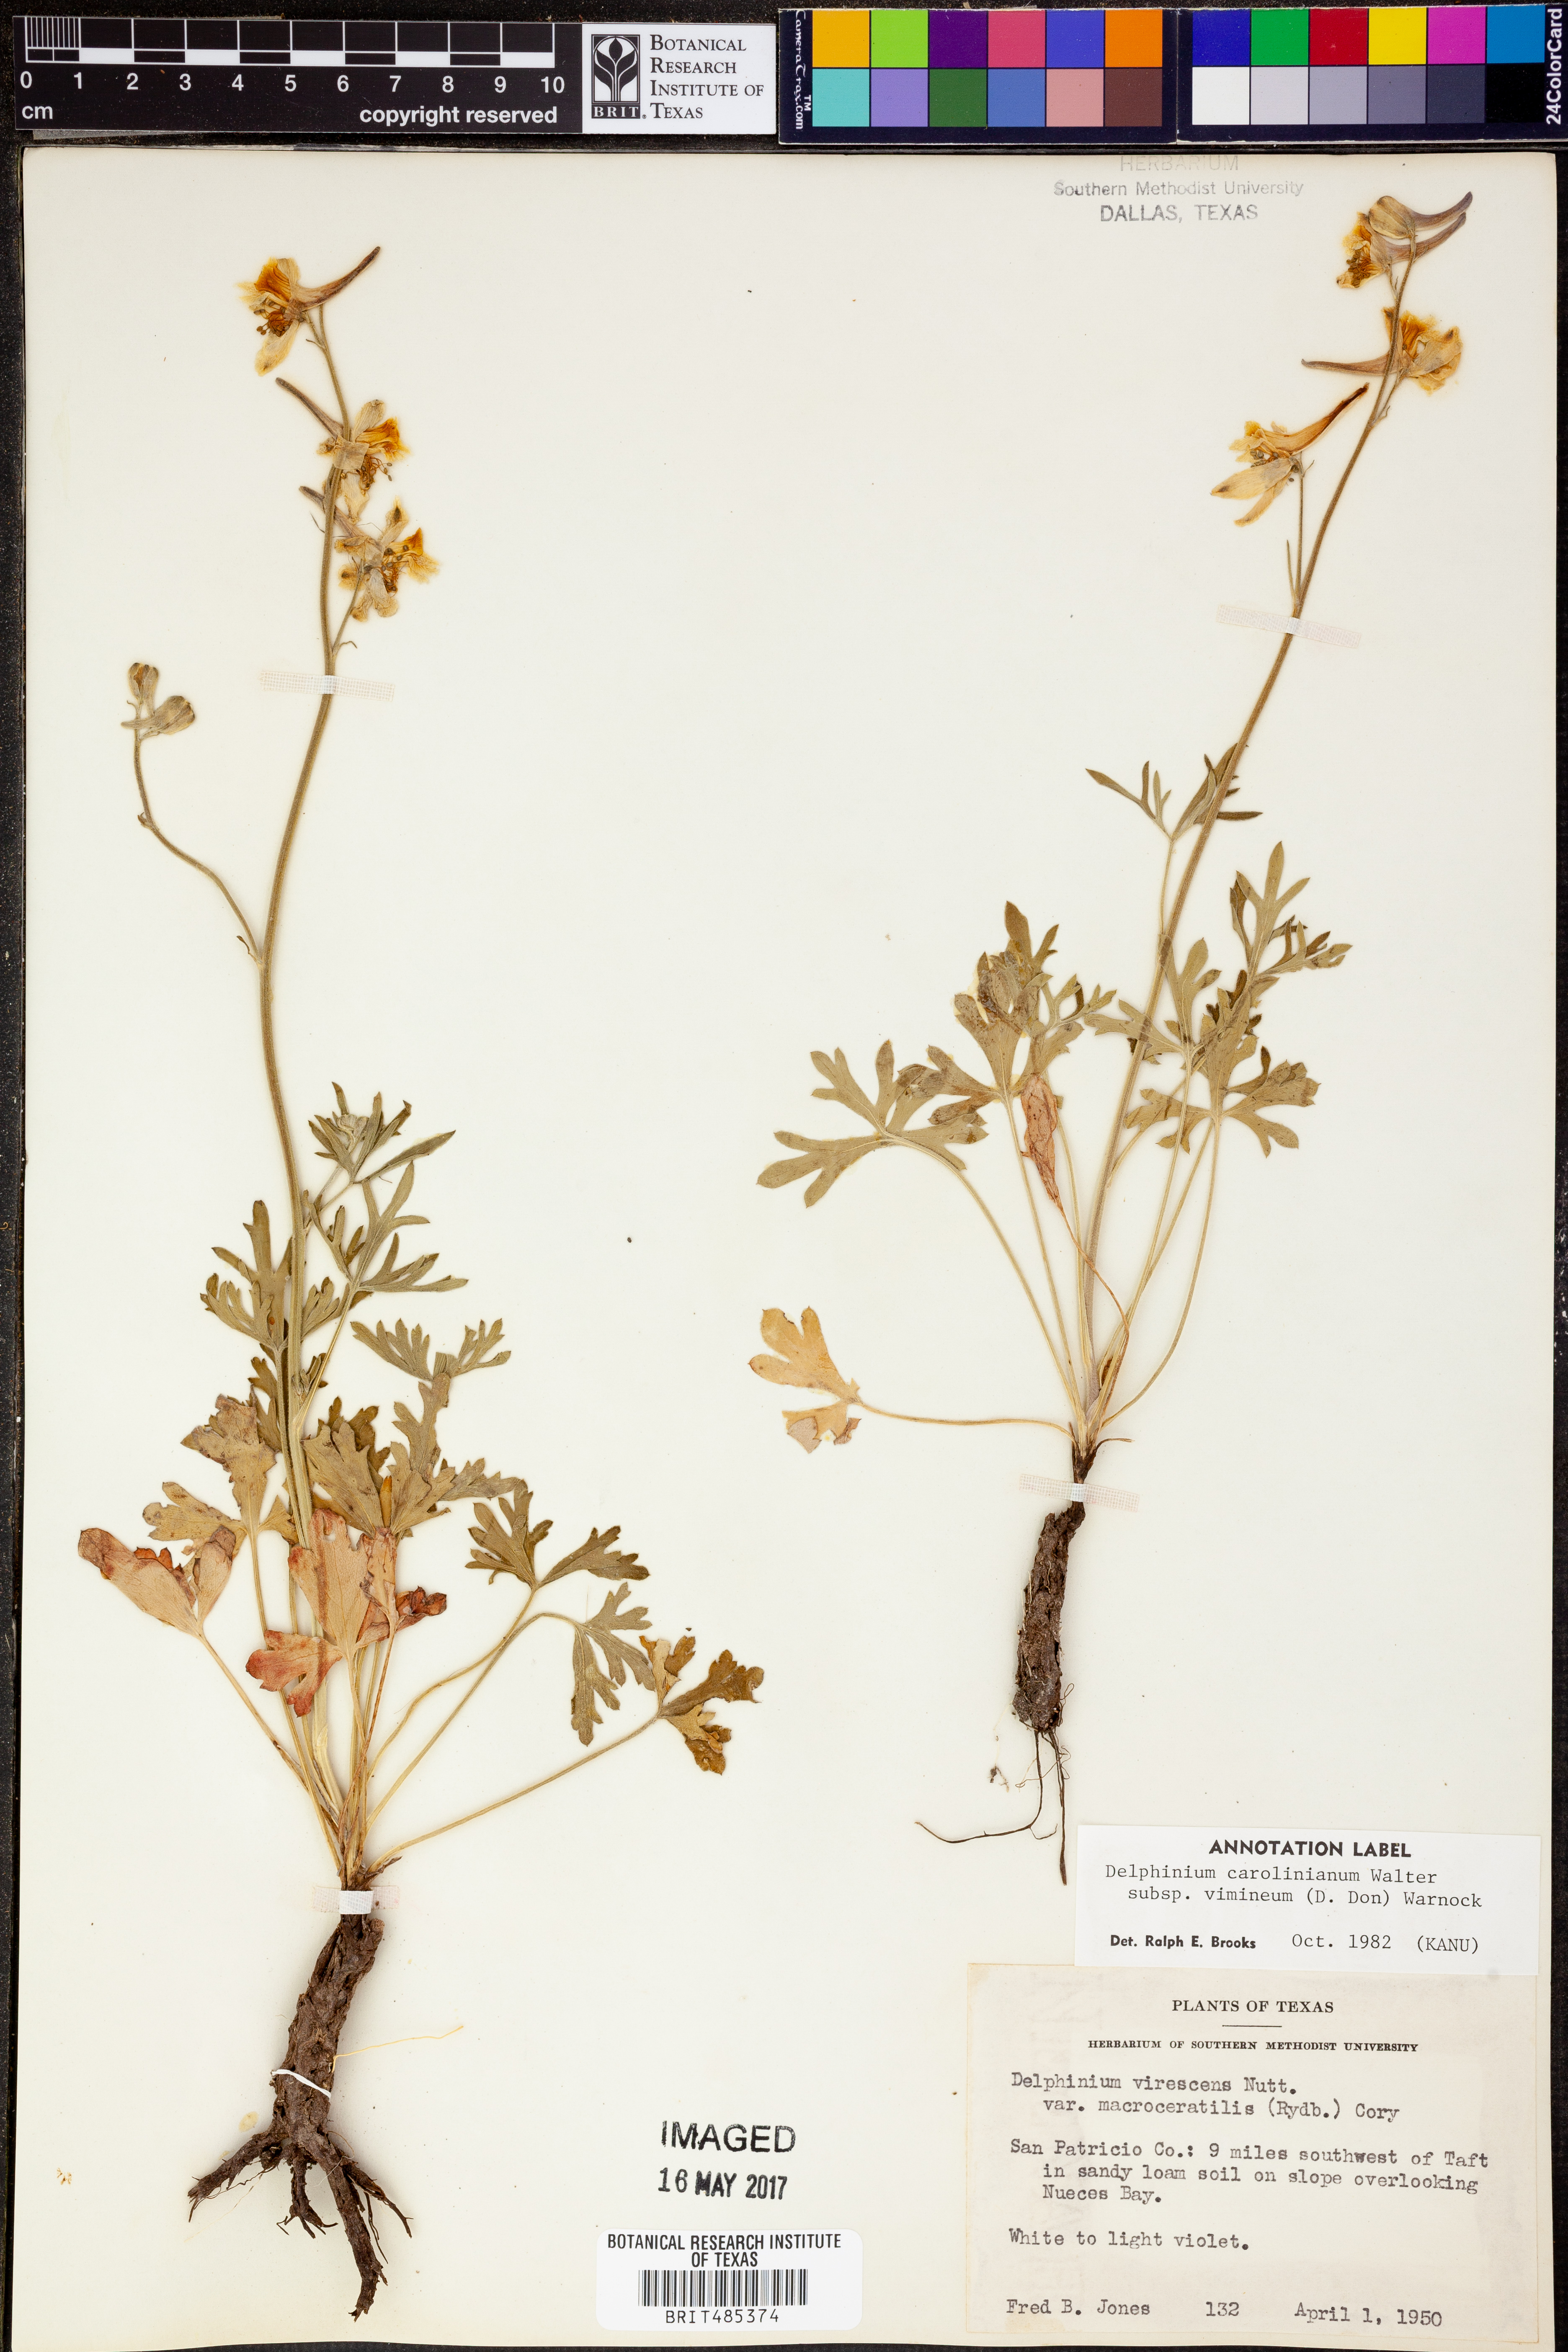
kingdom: Plantae
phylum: Tracheophyta
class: Magnoliopsida
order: Ranunculales
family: Ranunculaceae
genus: Delphinium
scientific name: Delphinium carolinianum
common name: Carolina larkspur
